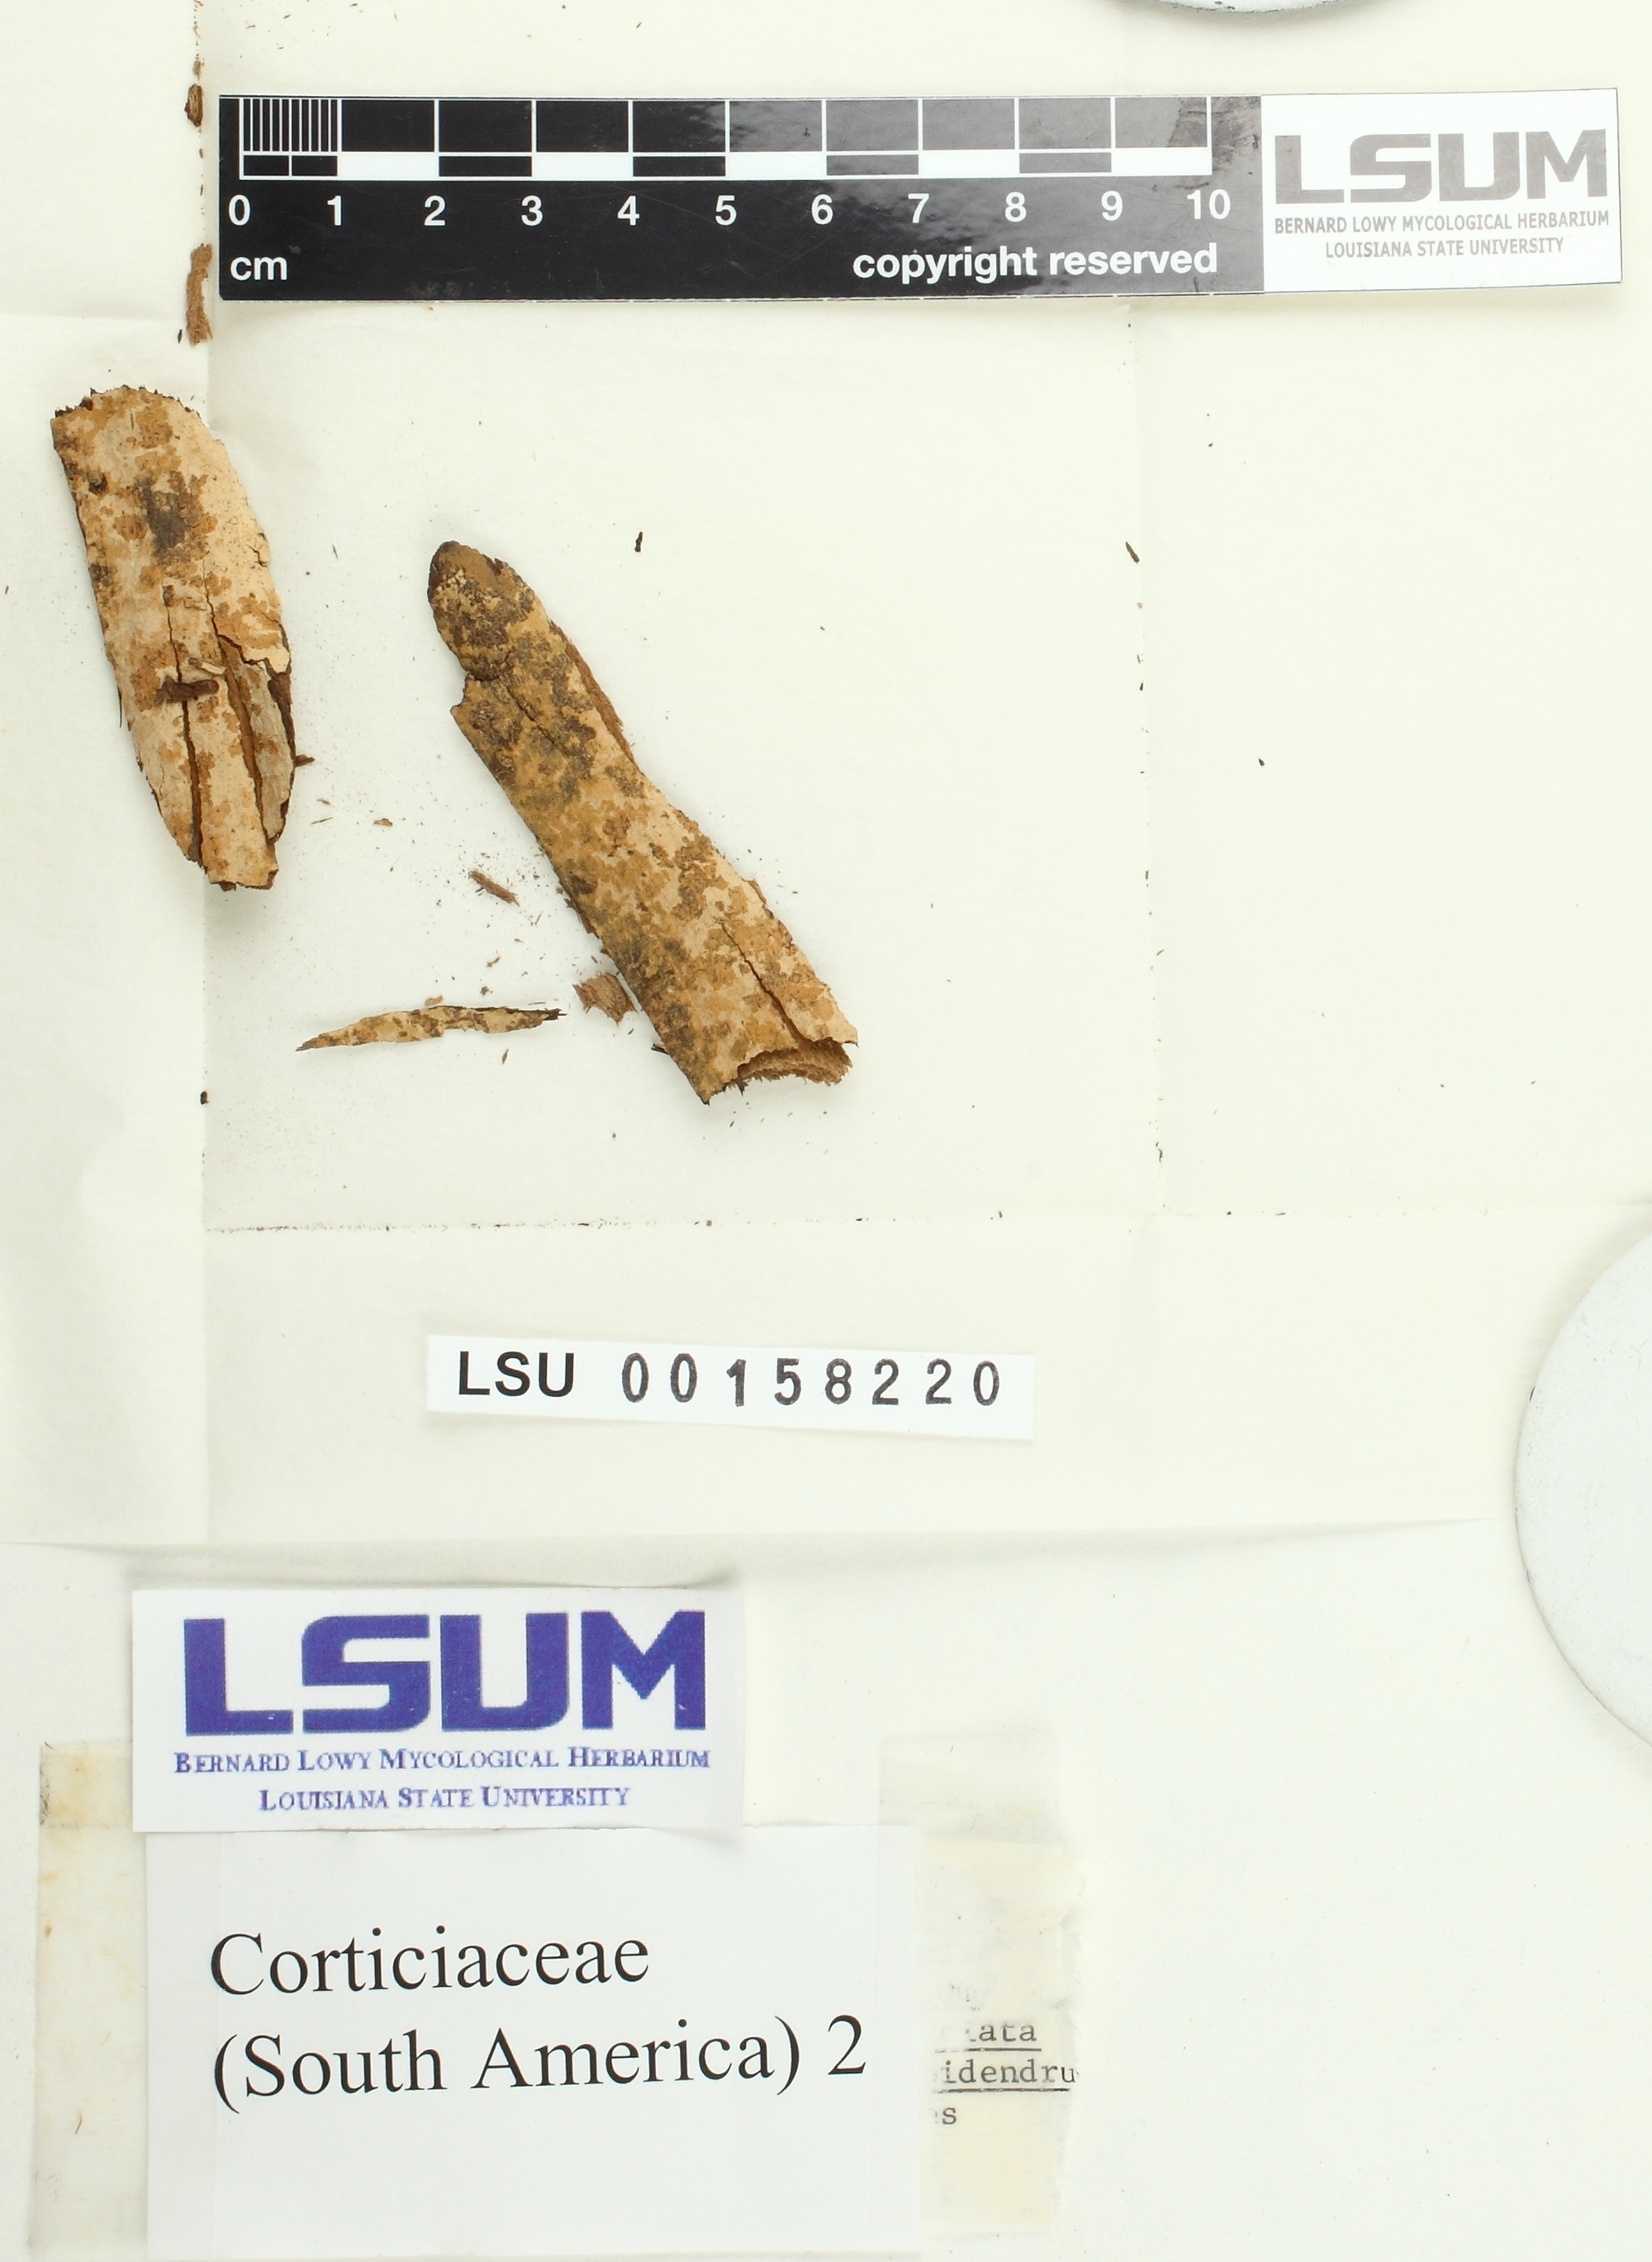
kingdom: Fungi
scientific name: Fungi
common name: Fungi
